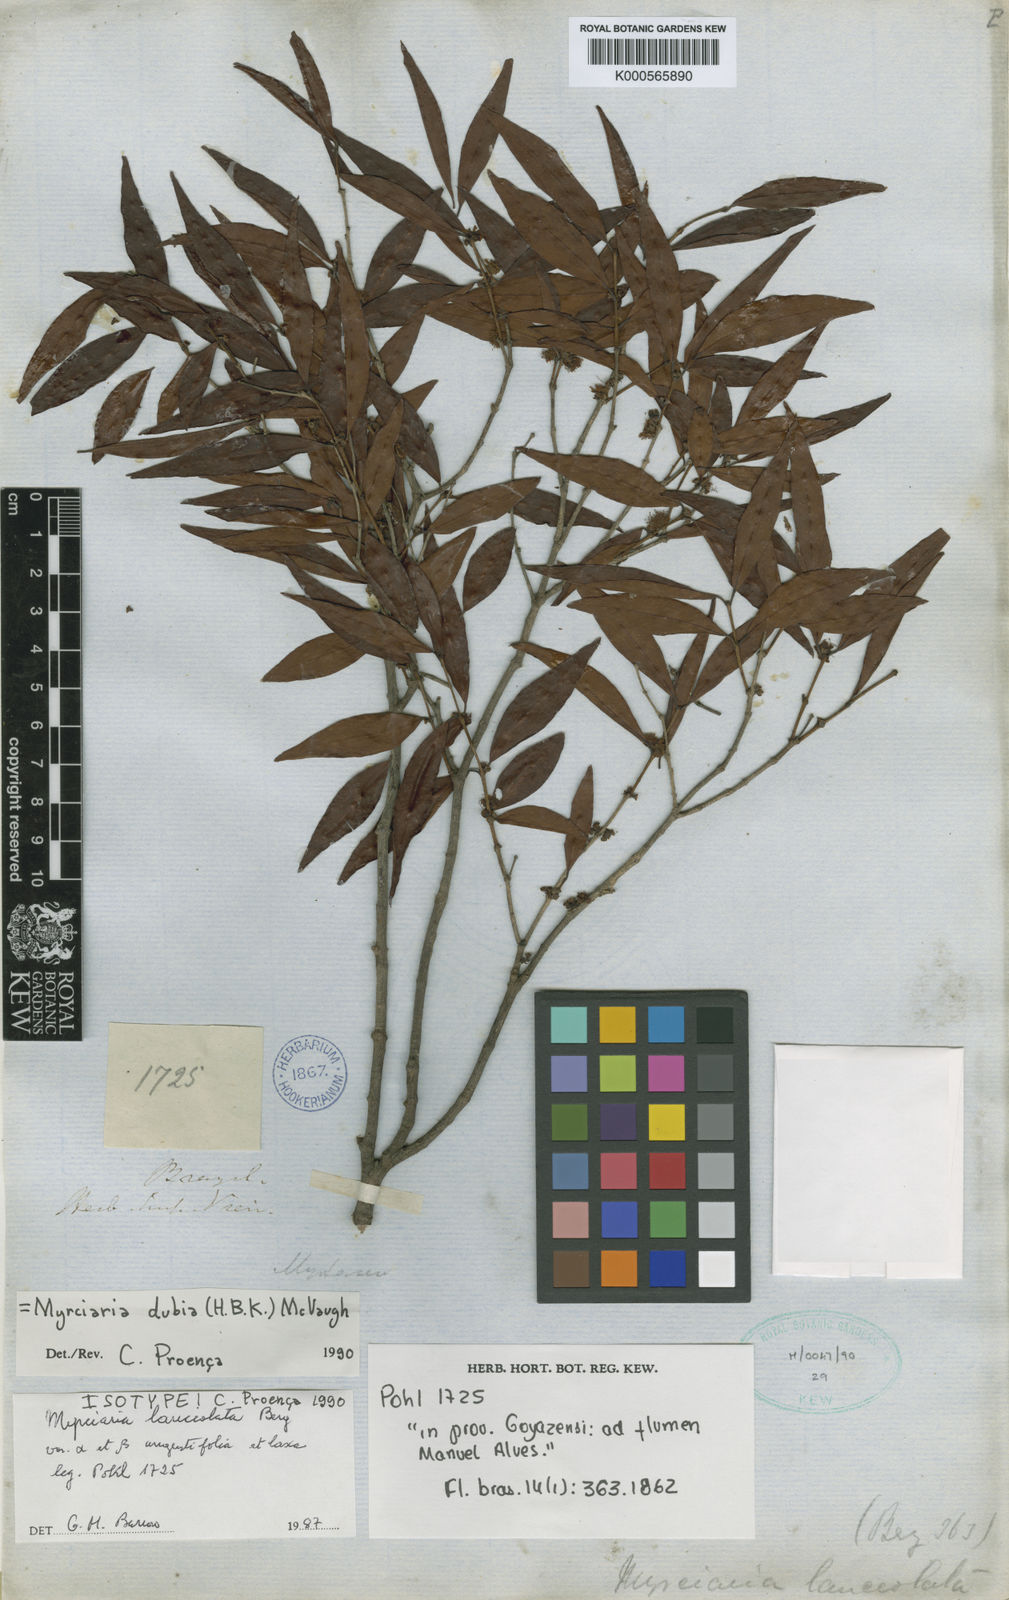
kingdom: Plantae
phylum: Tracheophyta
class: Magnoliopsida
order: Myrtales
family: Myrtaceae
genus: Myrciaria
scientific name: Myrciaria dubia
